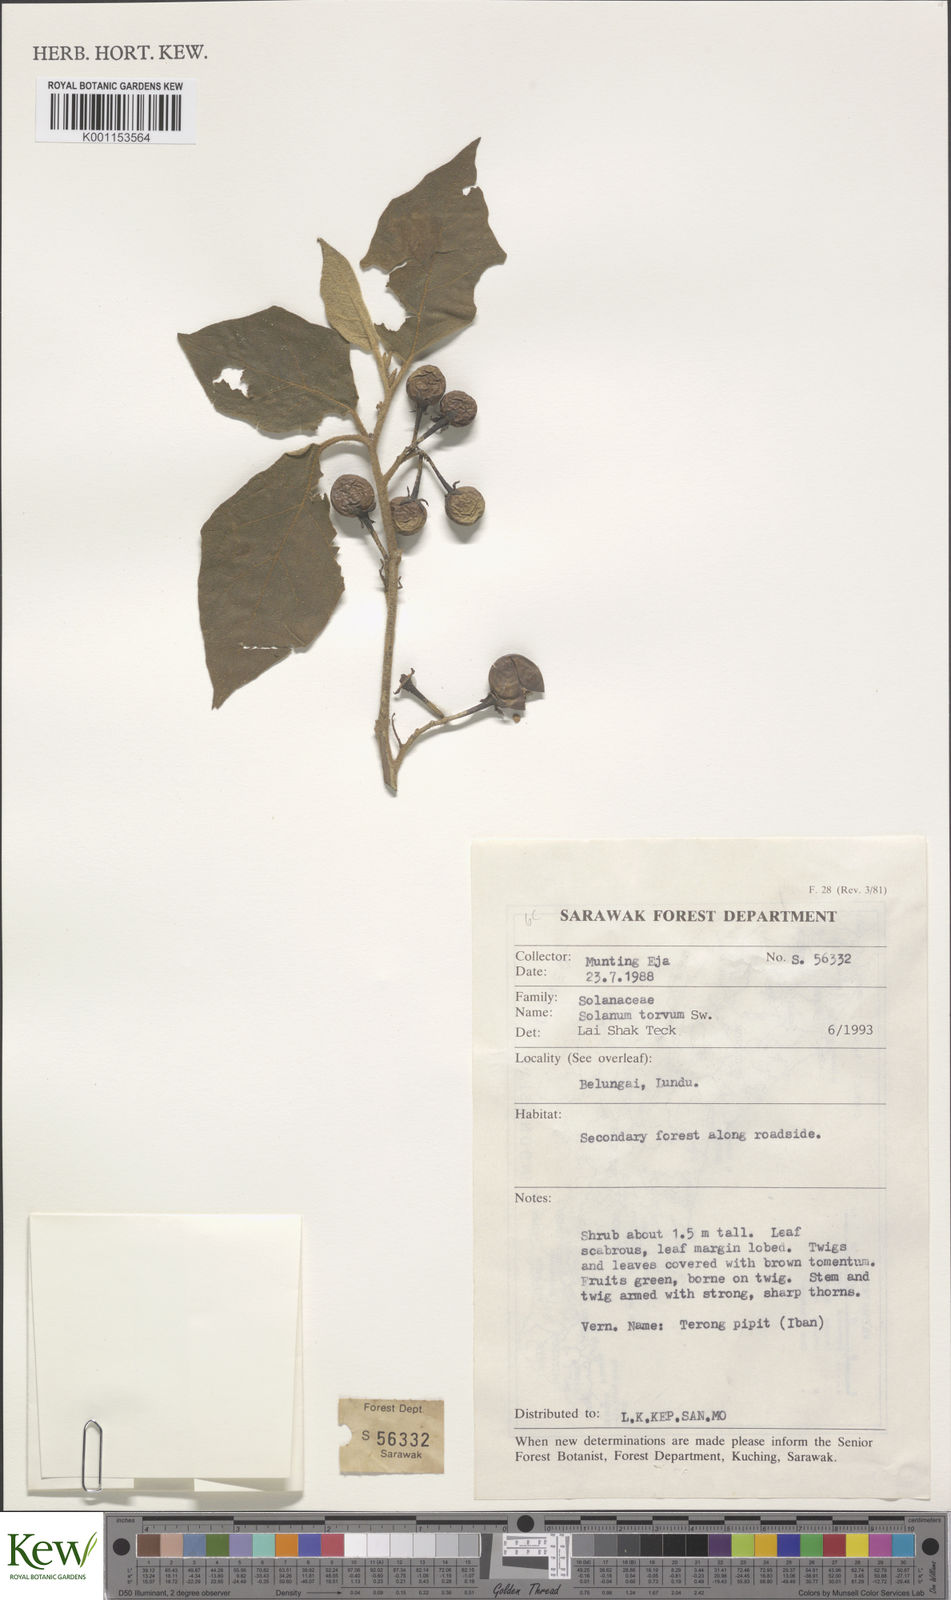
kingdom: Plantae
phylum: Tracheophyta
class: Magnoliopsida
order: Solanales
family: Solanaceae
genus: Solanum
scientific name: Solanum torvum
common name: Turkey berry
